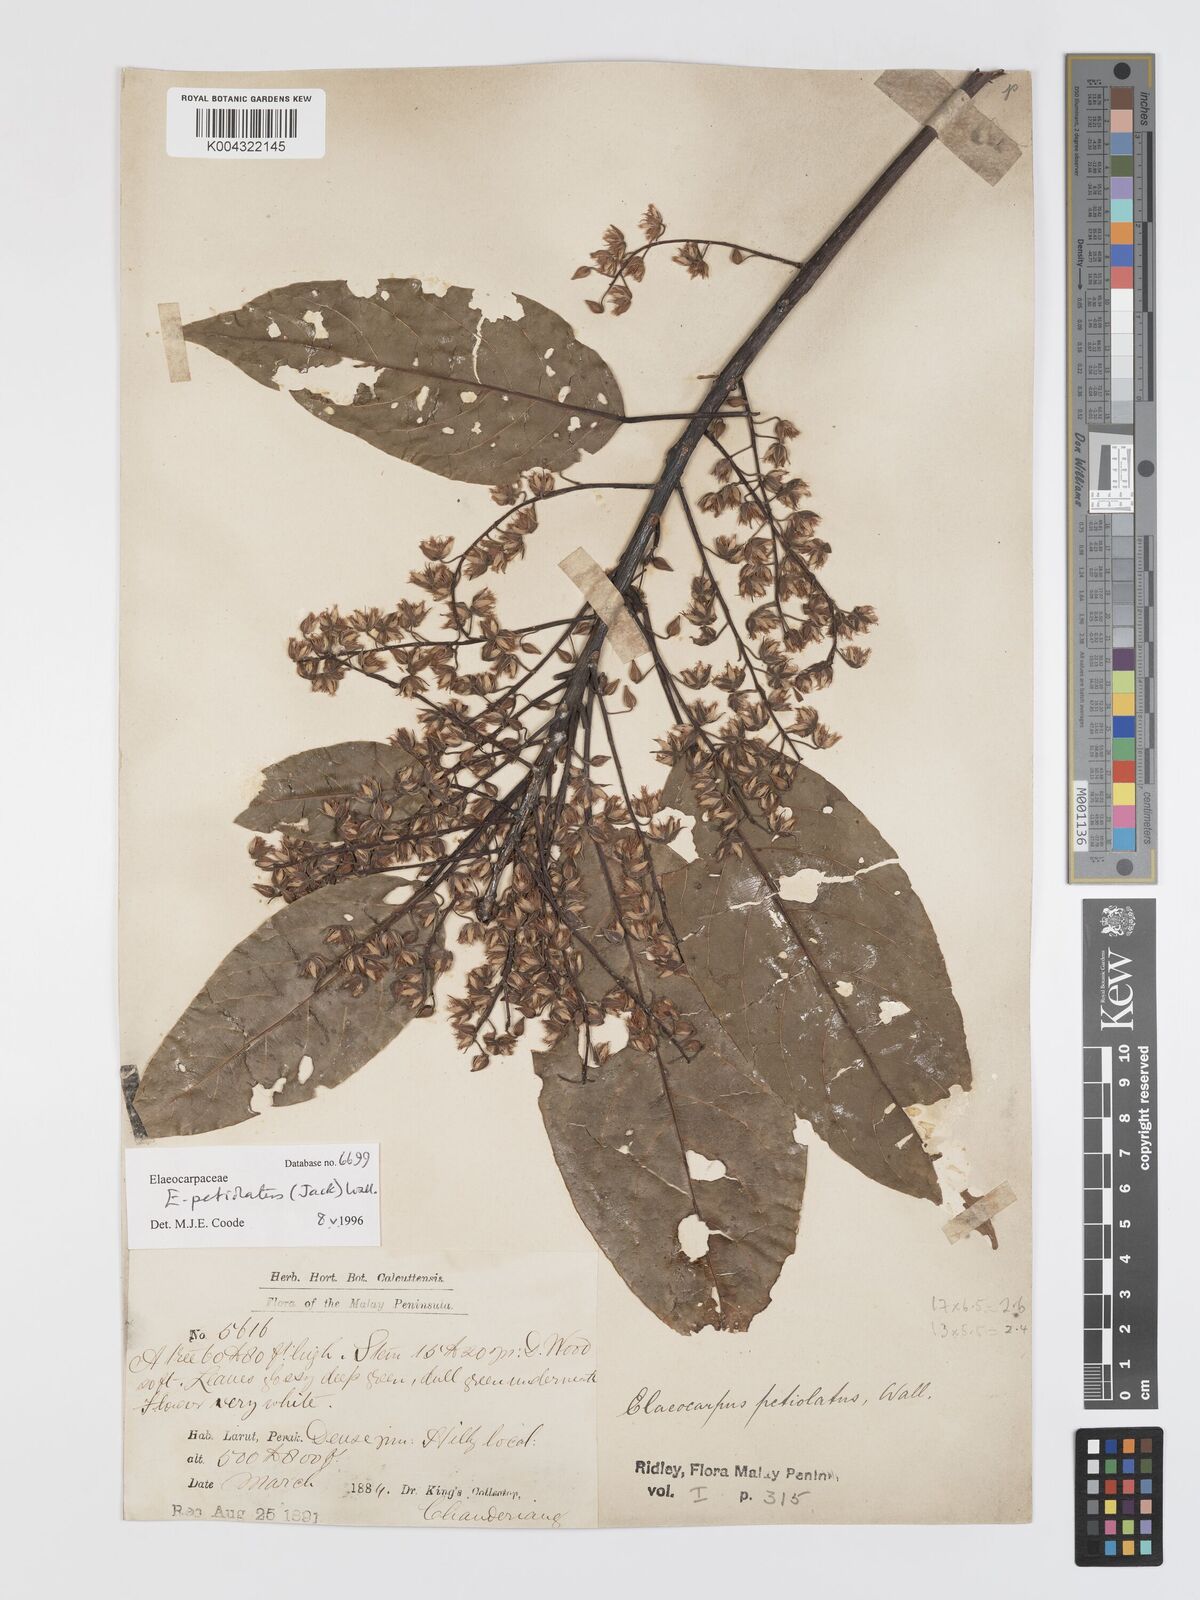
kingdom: Plantae
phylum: Tracheophyta
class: Magnoliopsida
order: Oxalidales
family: Elaeocarpaceae
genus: Elaeocarpus
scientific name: Elaeocarpus petiolatus
